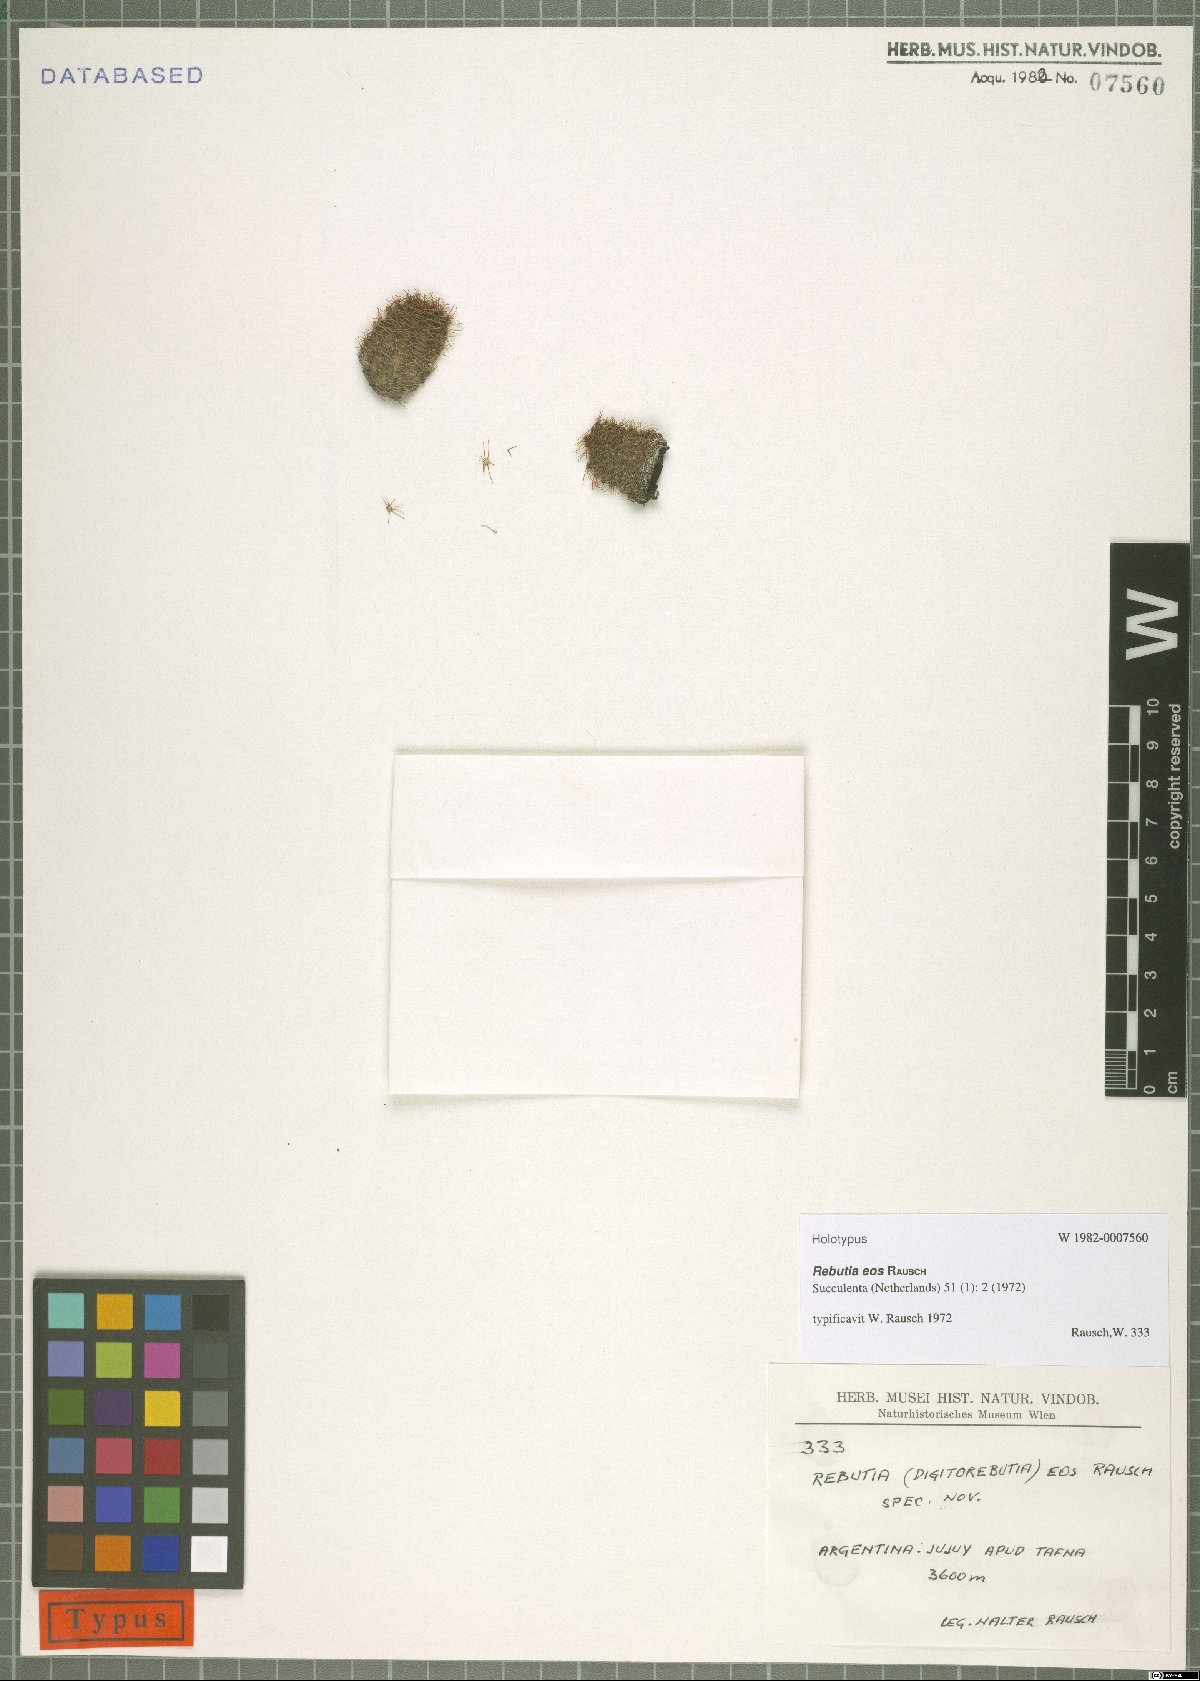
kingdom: Plantae
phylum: Tracheophyta
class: Magnoliopsida
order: Caryophyllales
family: Cactaceae
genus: Aylostera
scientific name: Aylostera eos
